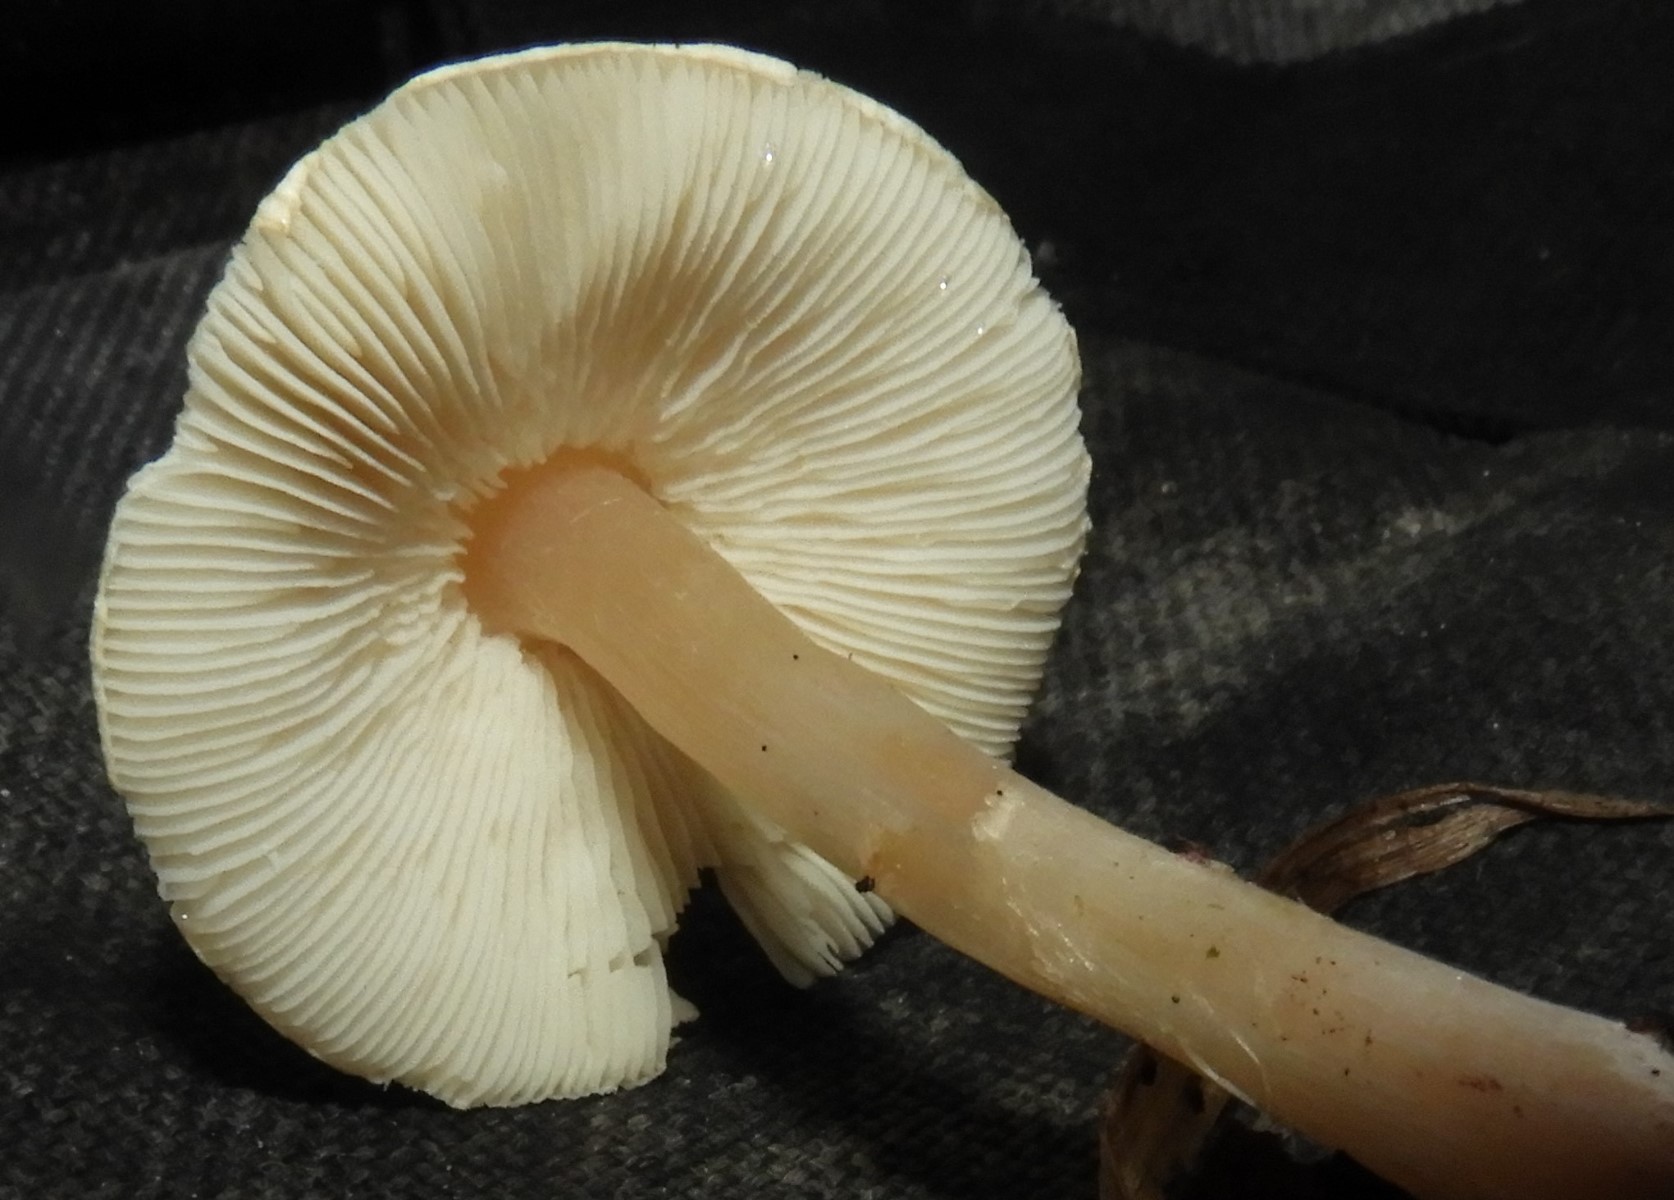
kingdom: Fungi
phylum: Basidiomycota
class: Agaricomycetes
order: Agaricales
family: Agaricaceae
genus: Lepiota
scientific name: Lepiota cristata
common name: stinkende parasolhat
